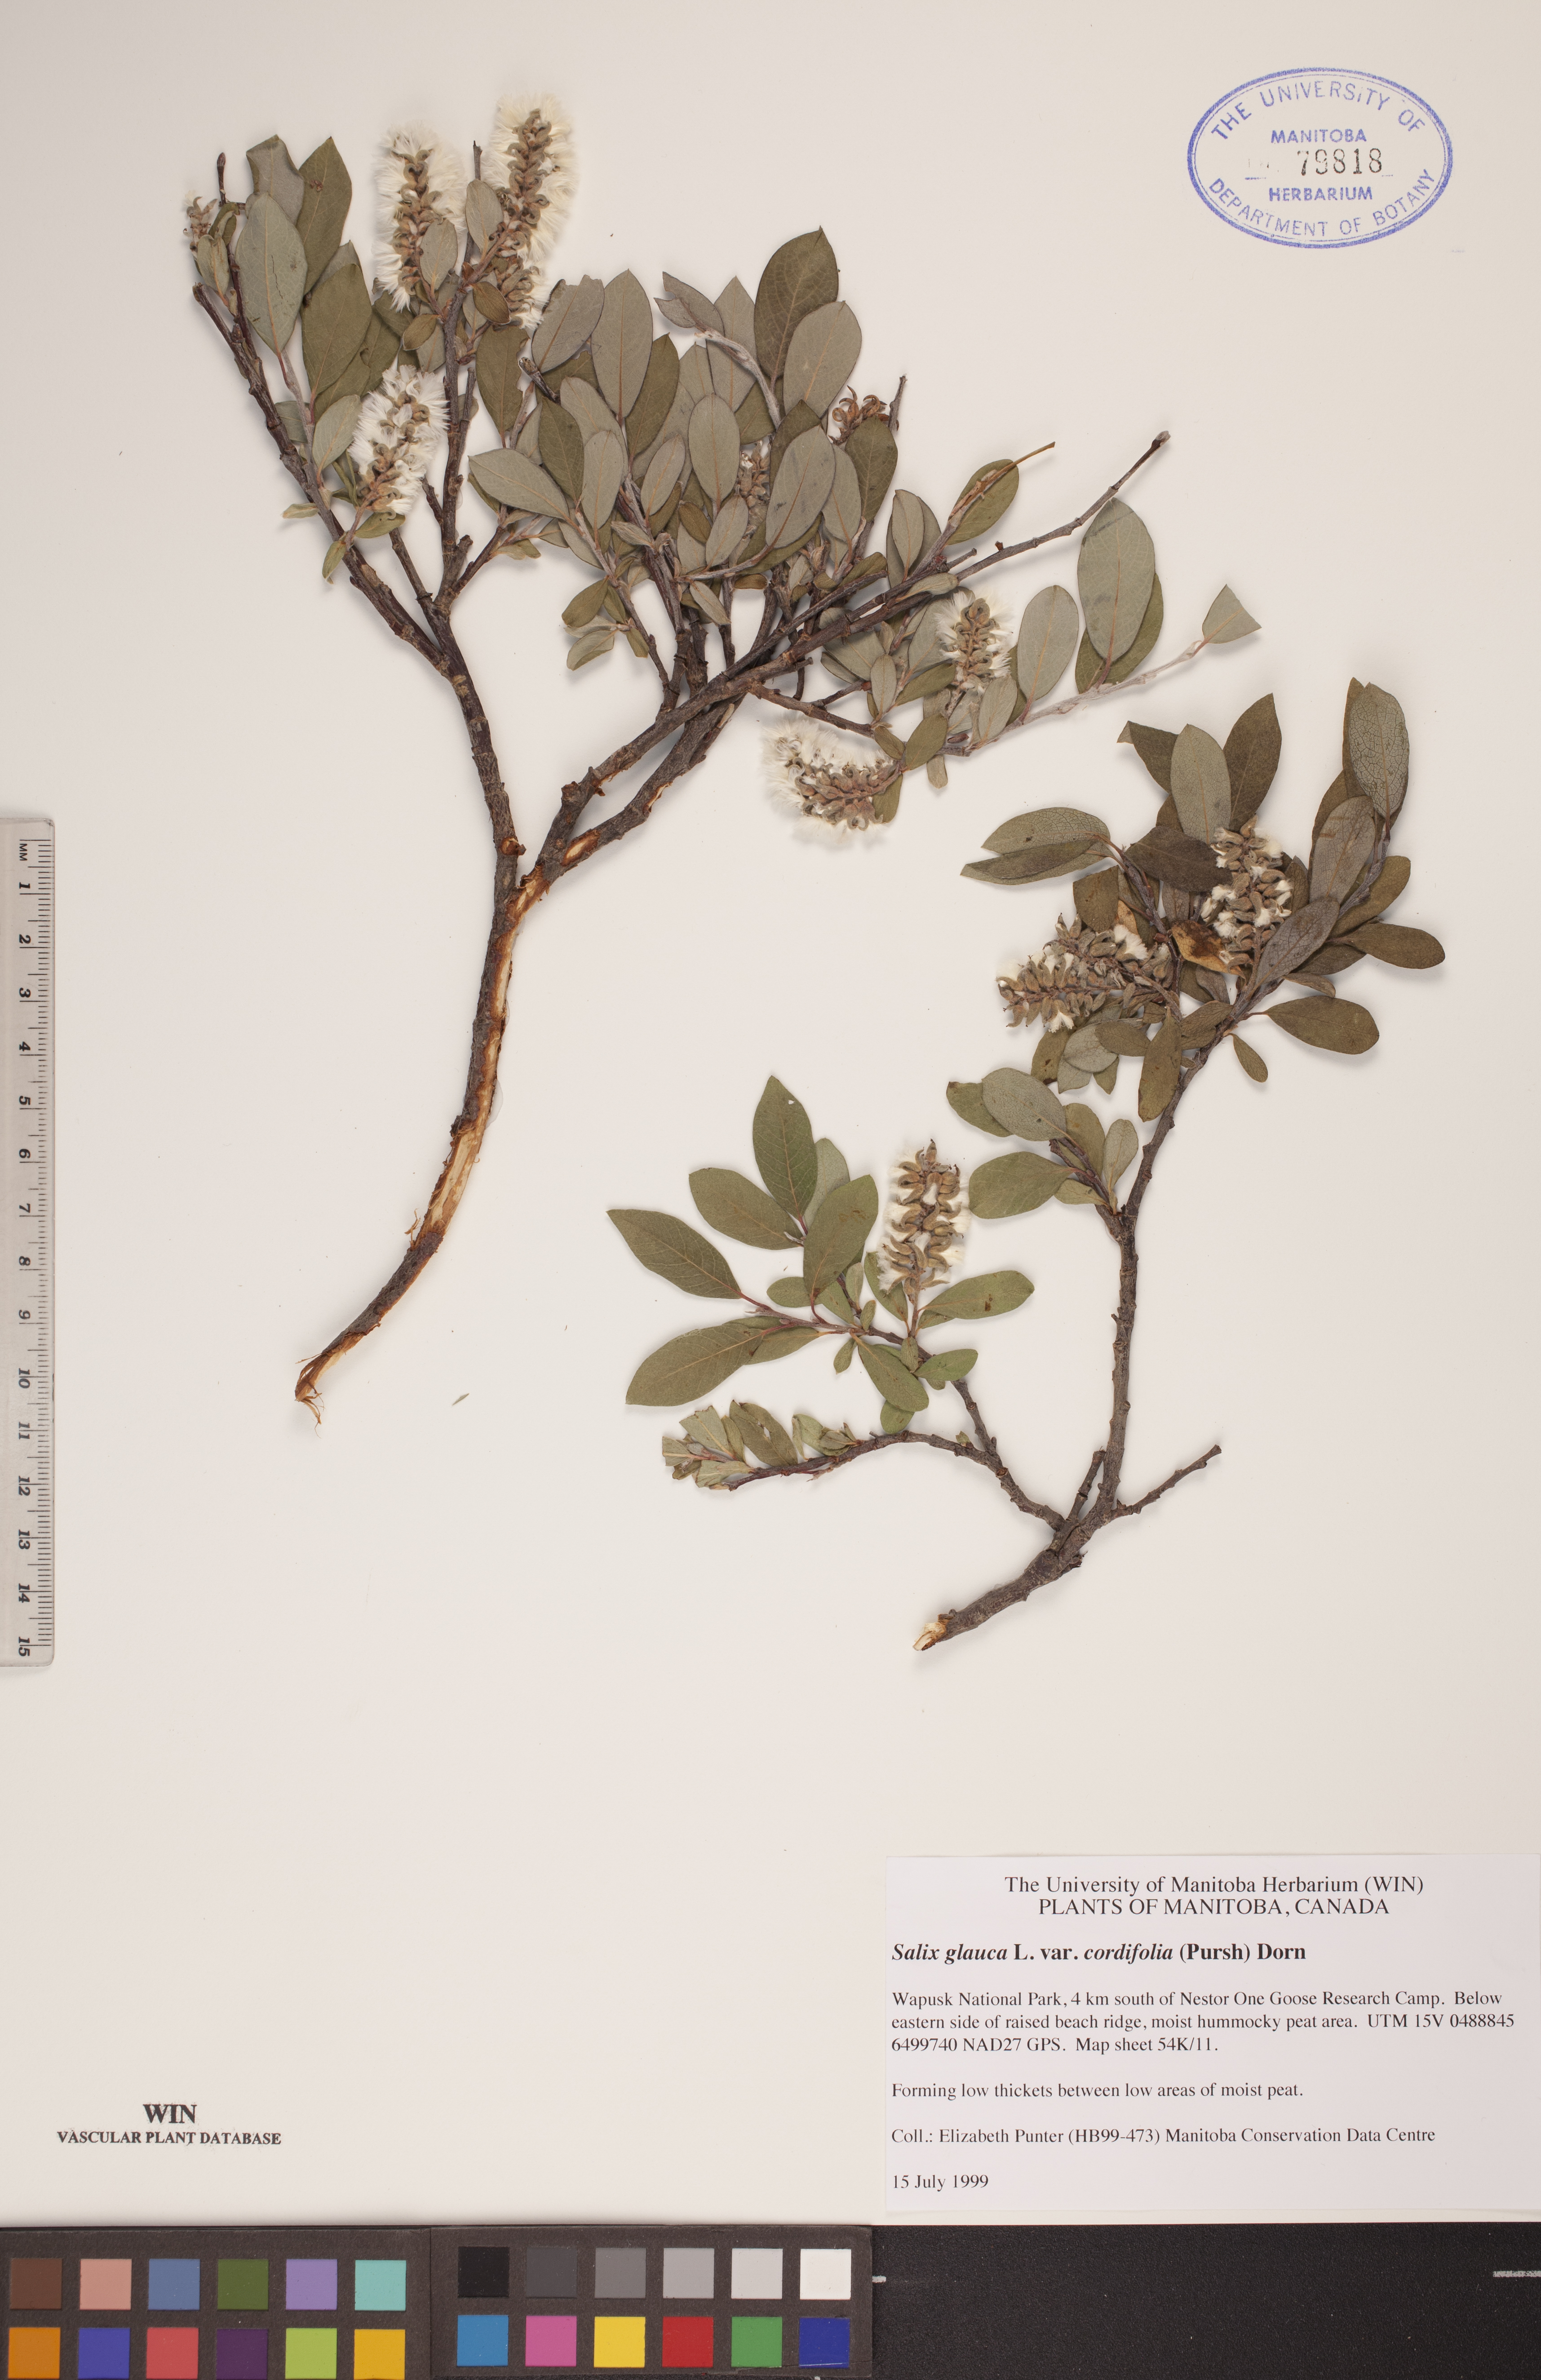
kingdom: Plantae
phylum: Tracheophyta
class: Magnoliopsida
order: Malpighiales
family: Salicaceae
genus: Salix
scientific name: Salix glauca
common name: Glaucous willow
